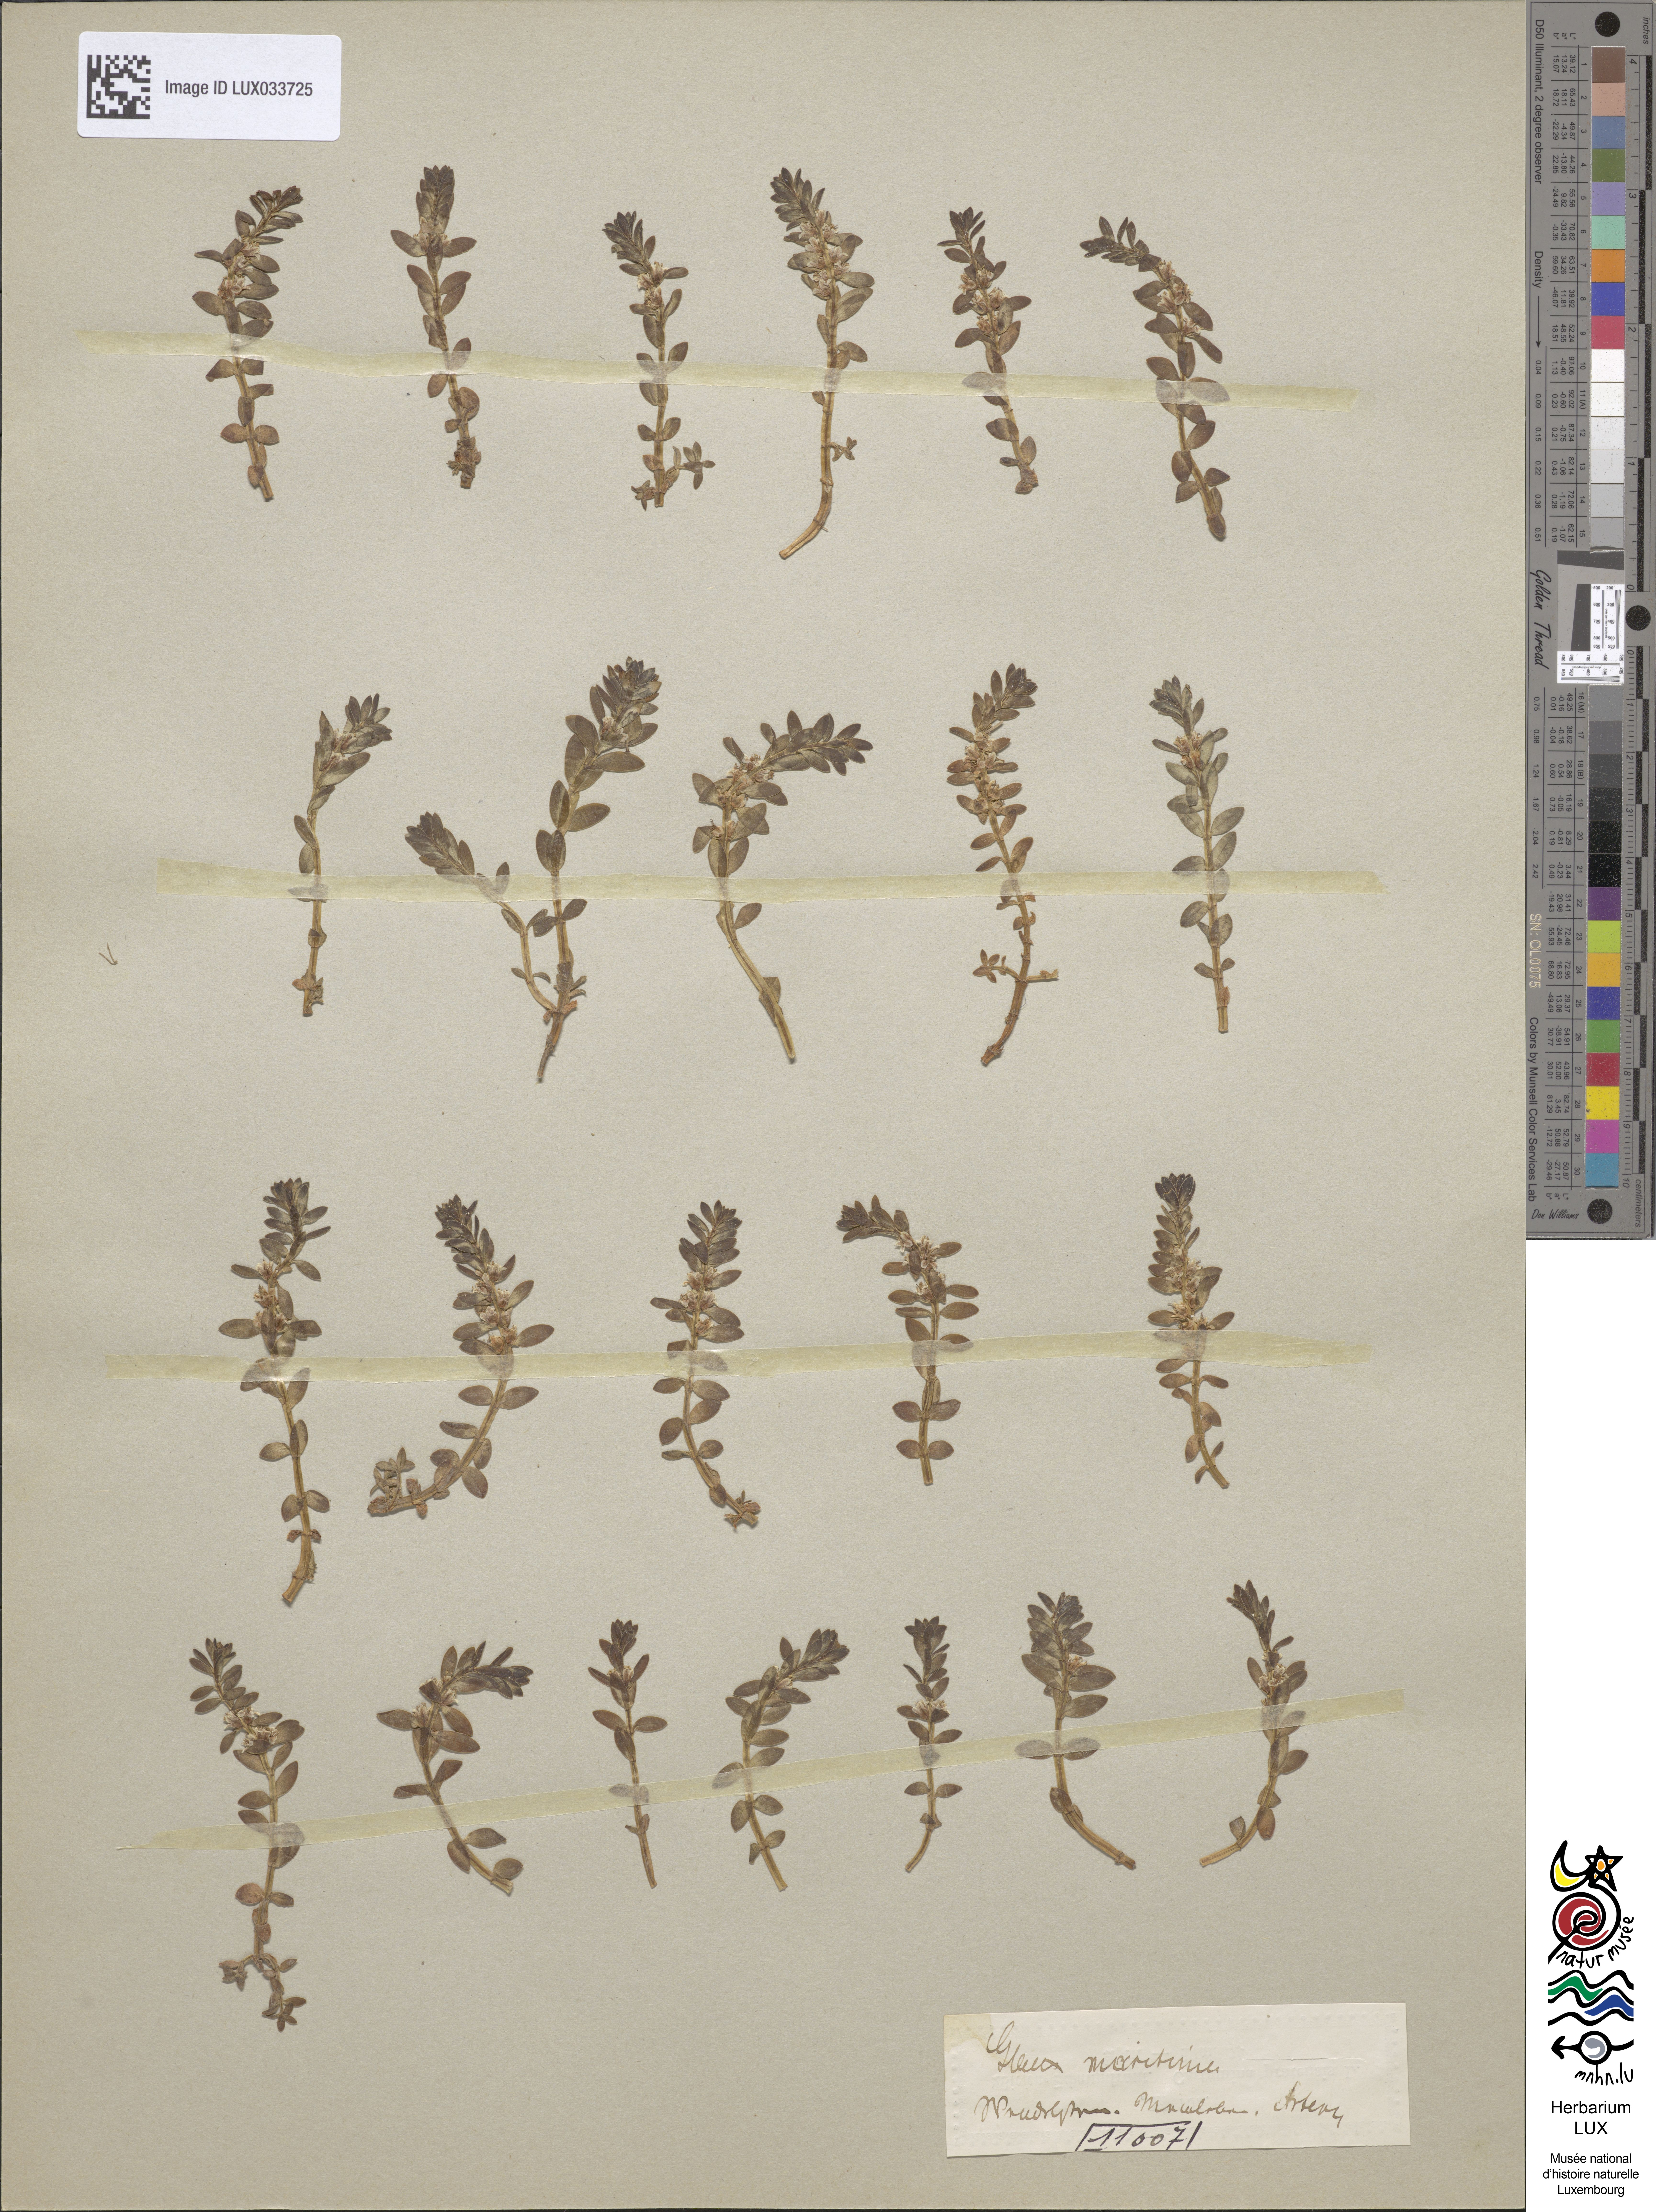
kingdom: Plantae
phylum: Tracheophyta
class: Magnoliopsida
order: Ericales
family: Primulaceae
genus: Lysimachia
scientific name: Lysimachia maritima
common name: Sea milkwort
